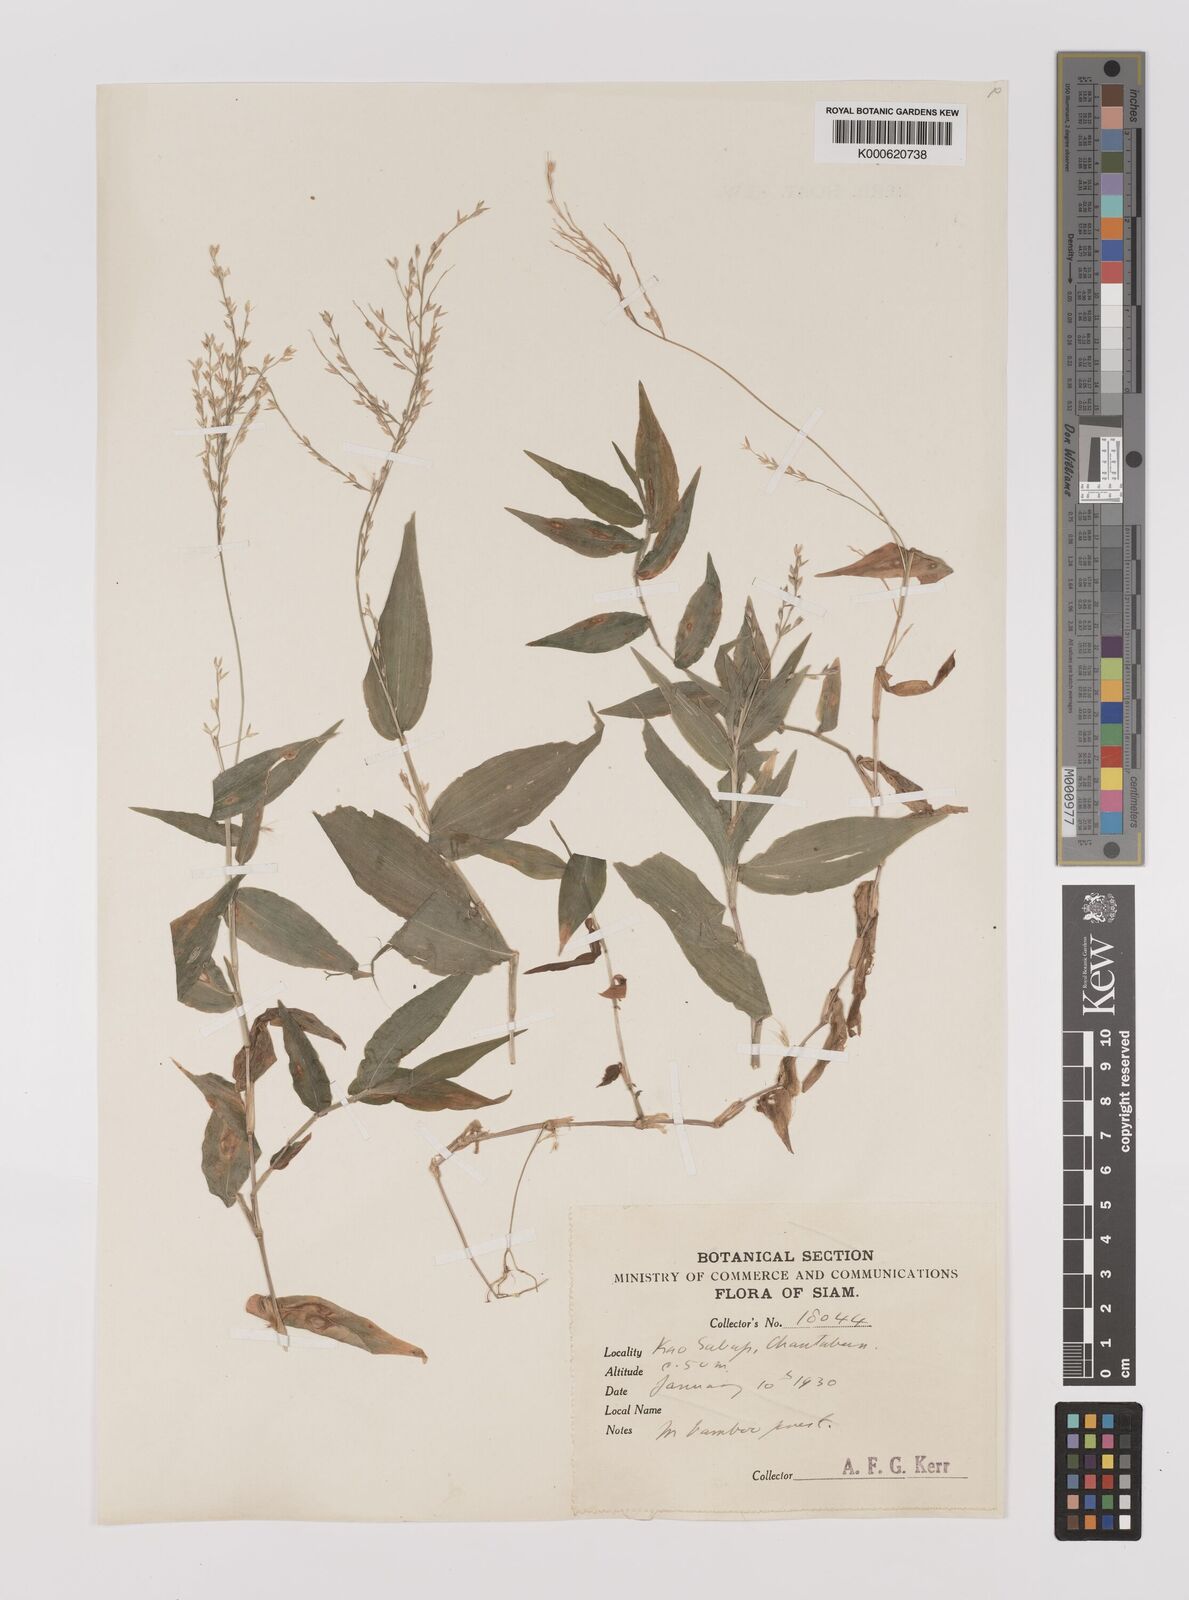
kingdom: Plantae
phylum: Tracheophyta
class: Liliopsida
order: Poales
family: Poaceae
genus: Ichnanthus
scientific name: Ichnanthus
